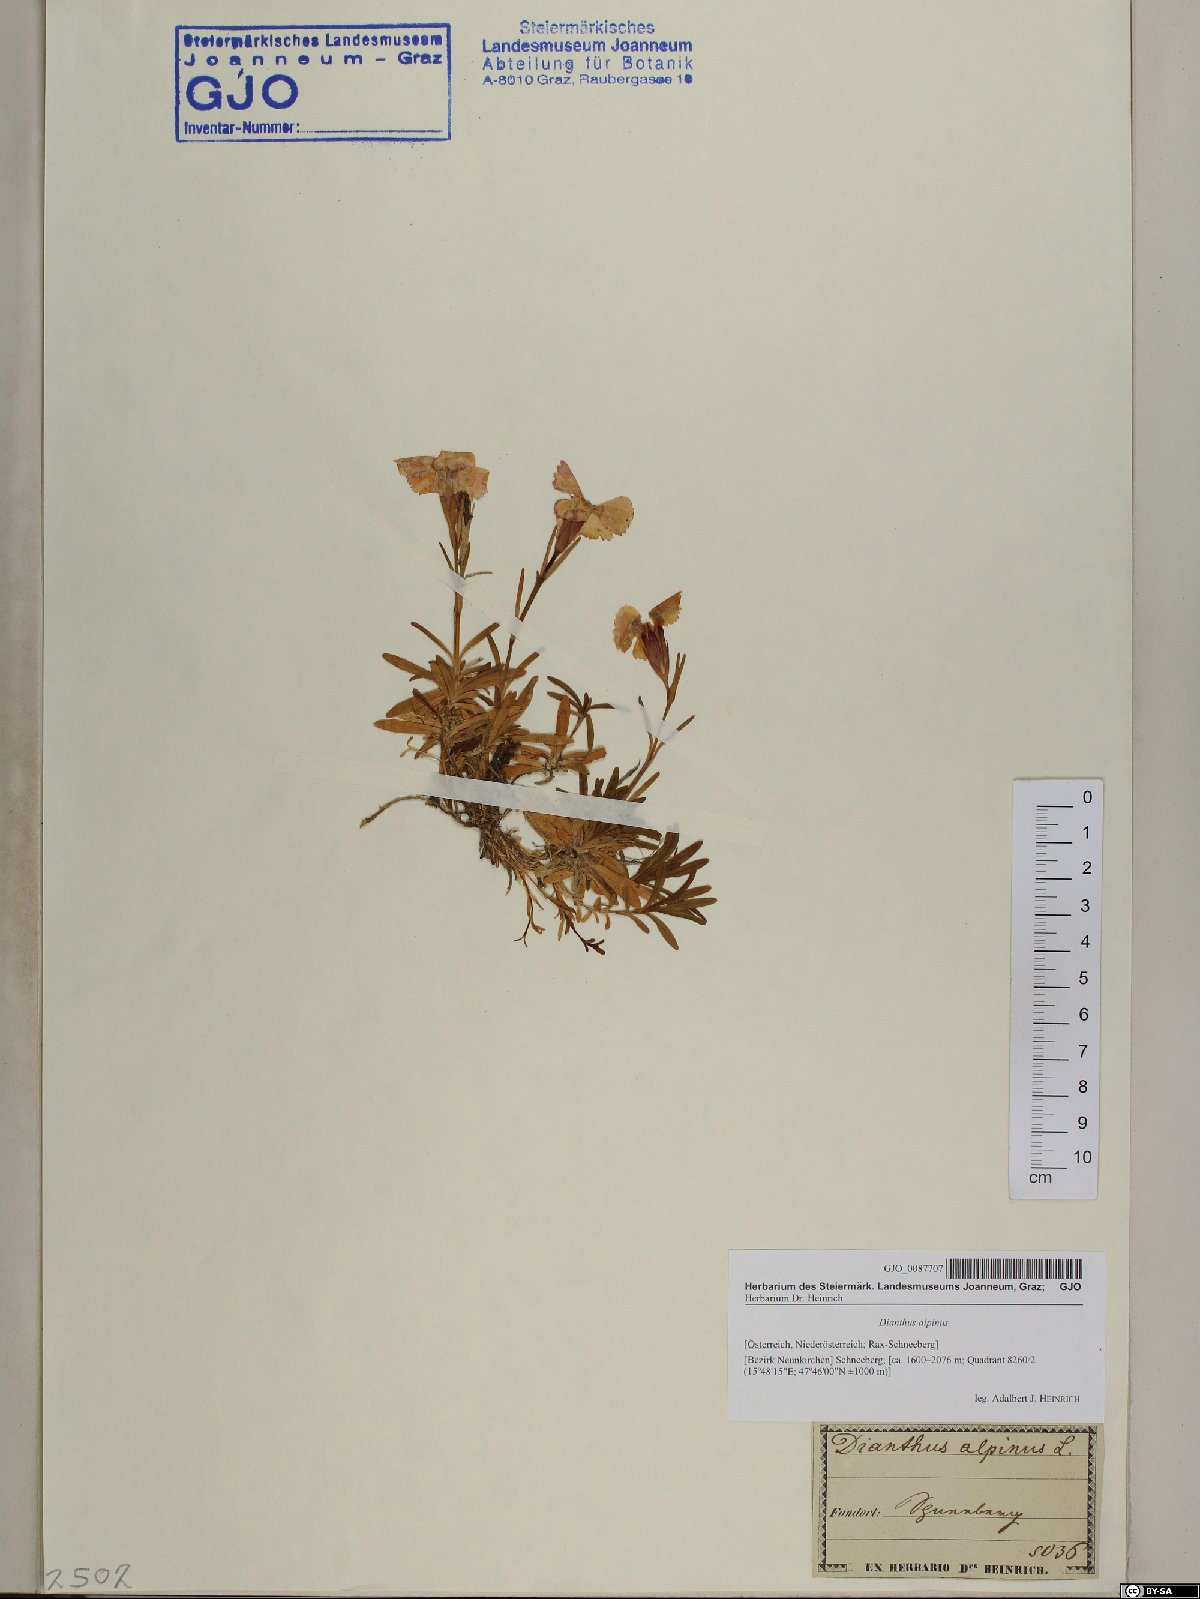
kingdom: Plantae
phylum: Tracheophyta
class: Magnoliopsida
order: Caryophyllales
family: Caryophyllaceae
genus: Dianthus
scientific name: Dianthus alpinus
